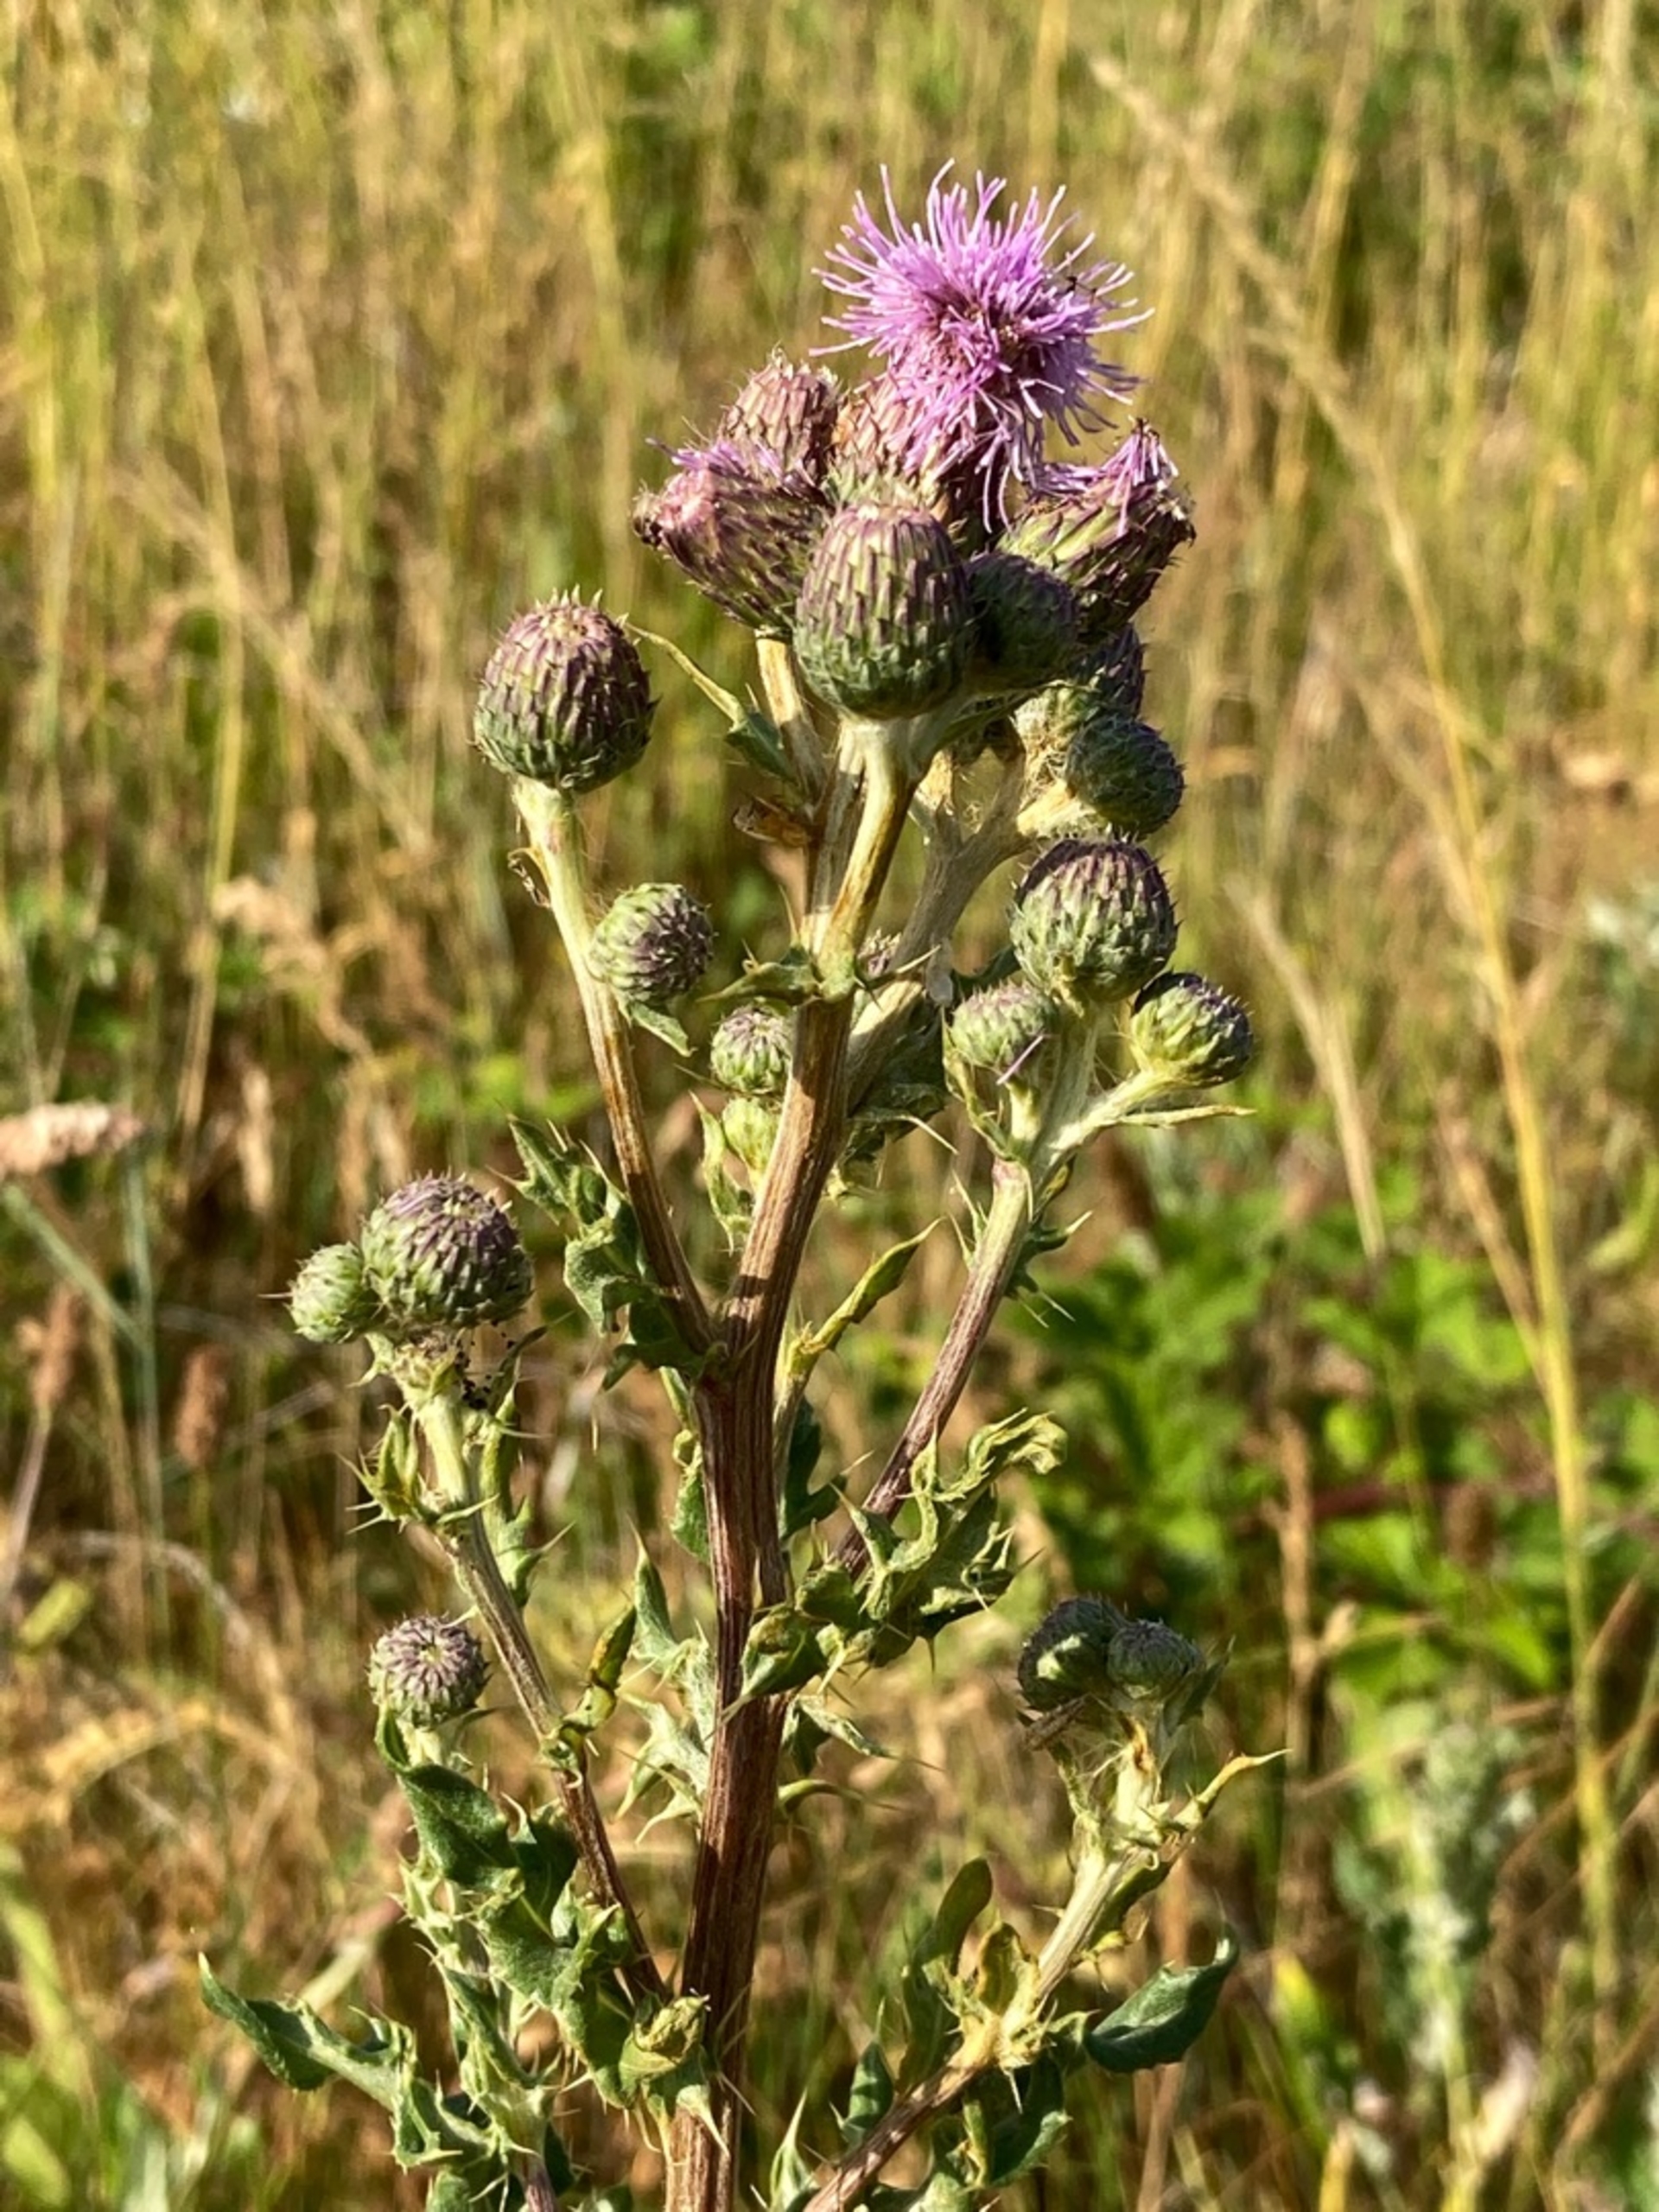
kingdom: Plantae
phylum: Tracheophyta
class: Magnoliopsida
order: Asterales
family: Asteraceae
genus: Cirsium
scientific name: Cirsium arvense
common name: Ager-tidsel
